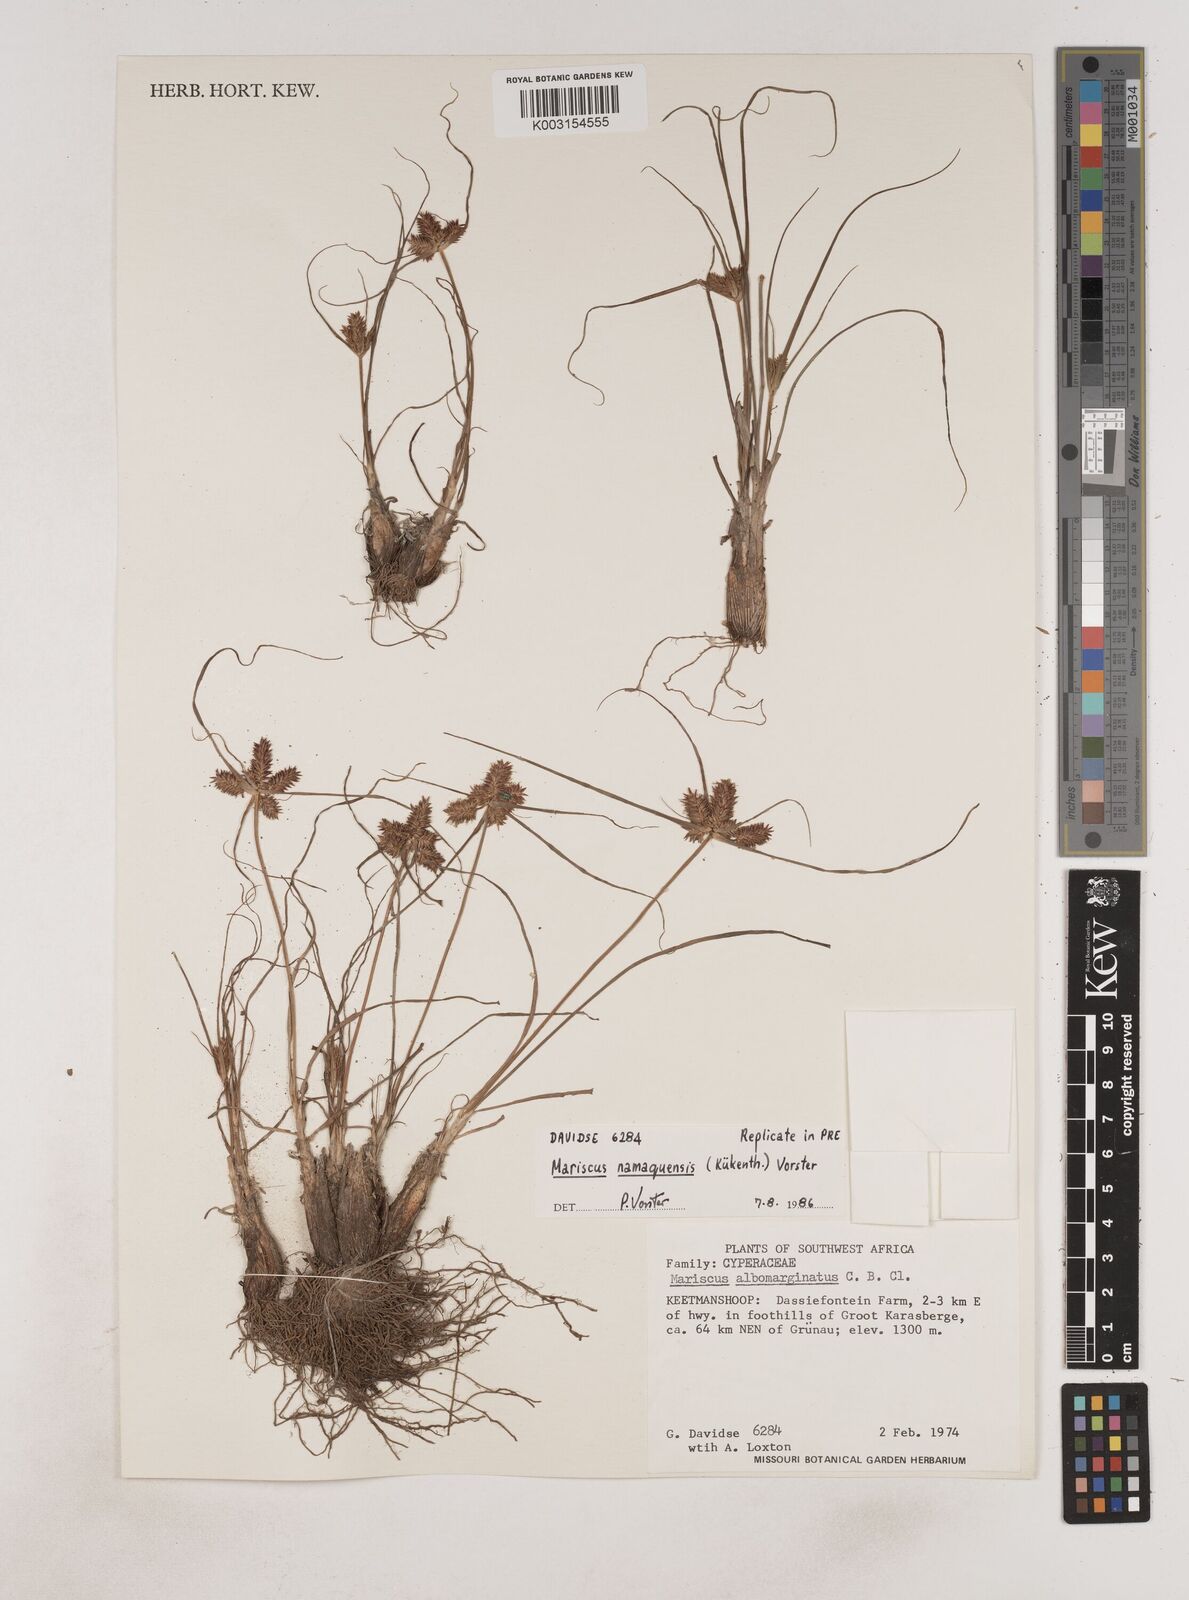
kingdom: Plantae
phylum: Tracheophyta
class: Liliopsida
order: Poales
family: Cyperaceae
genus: Cyperus
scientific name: Cyperus indecorus
